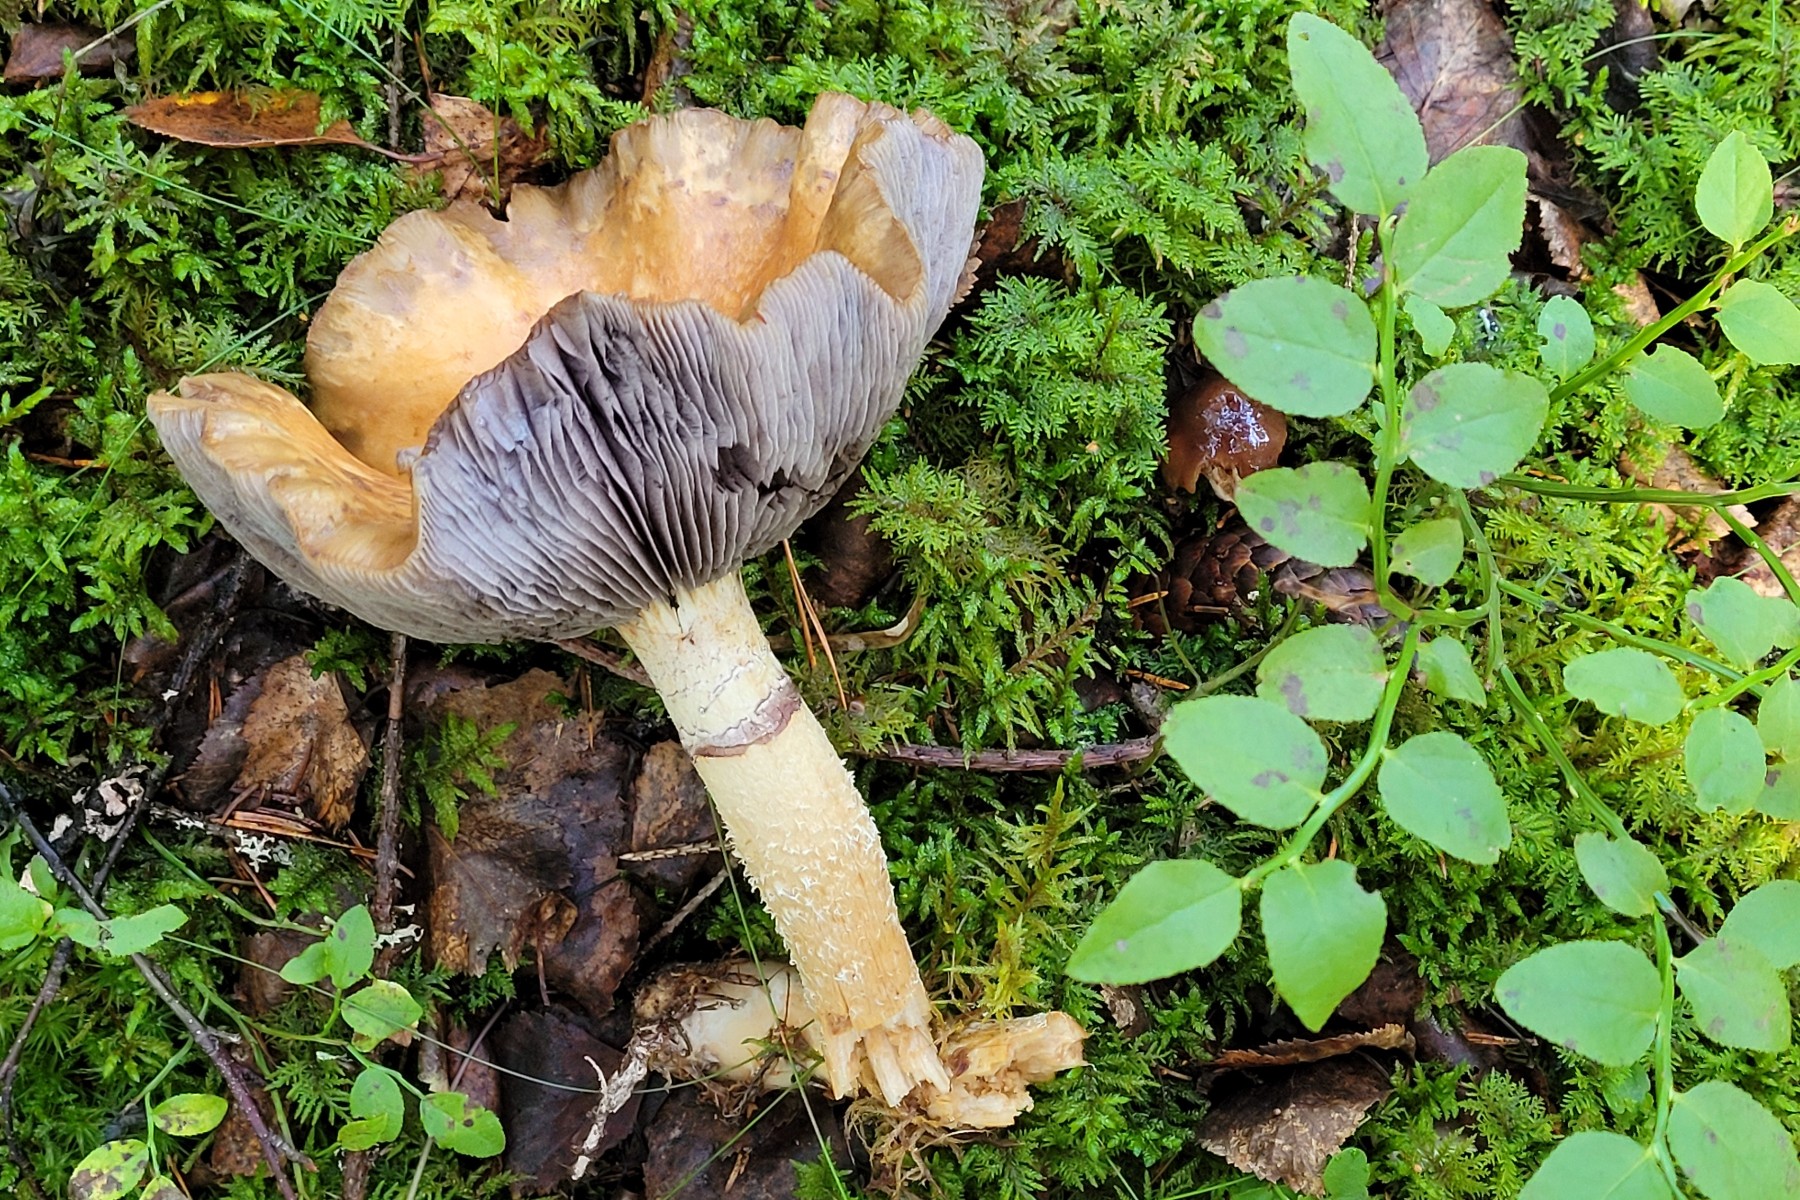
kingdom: Fungi
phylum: Basidiomycota
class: Agaricomycetes
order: Agaricales
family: Strophariaceae
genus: Stropharia
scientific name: Stropharia hornemannii
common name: nordisk bredblad
